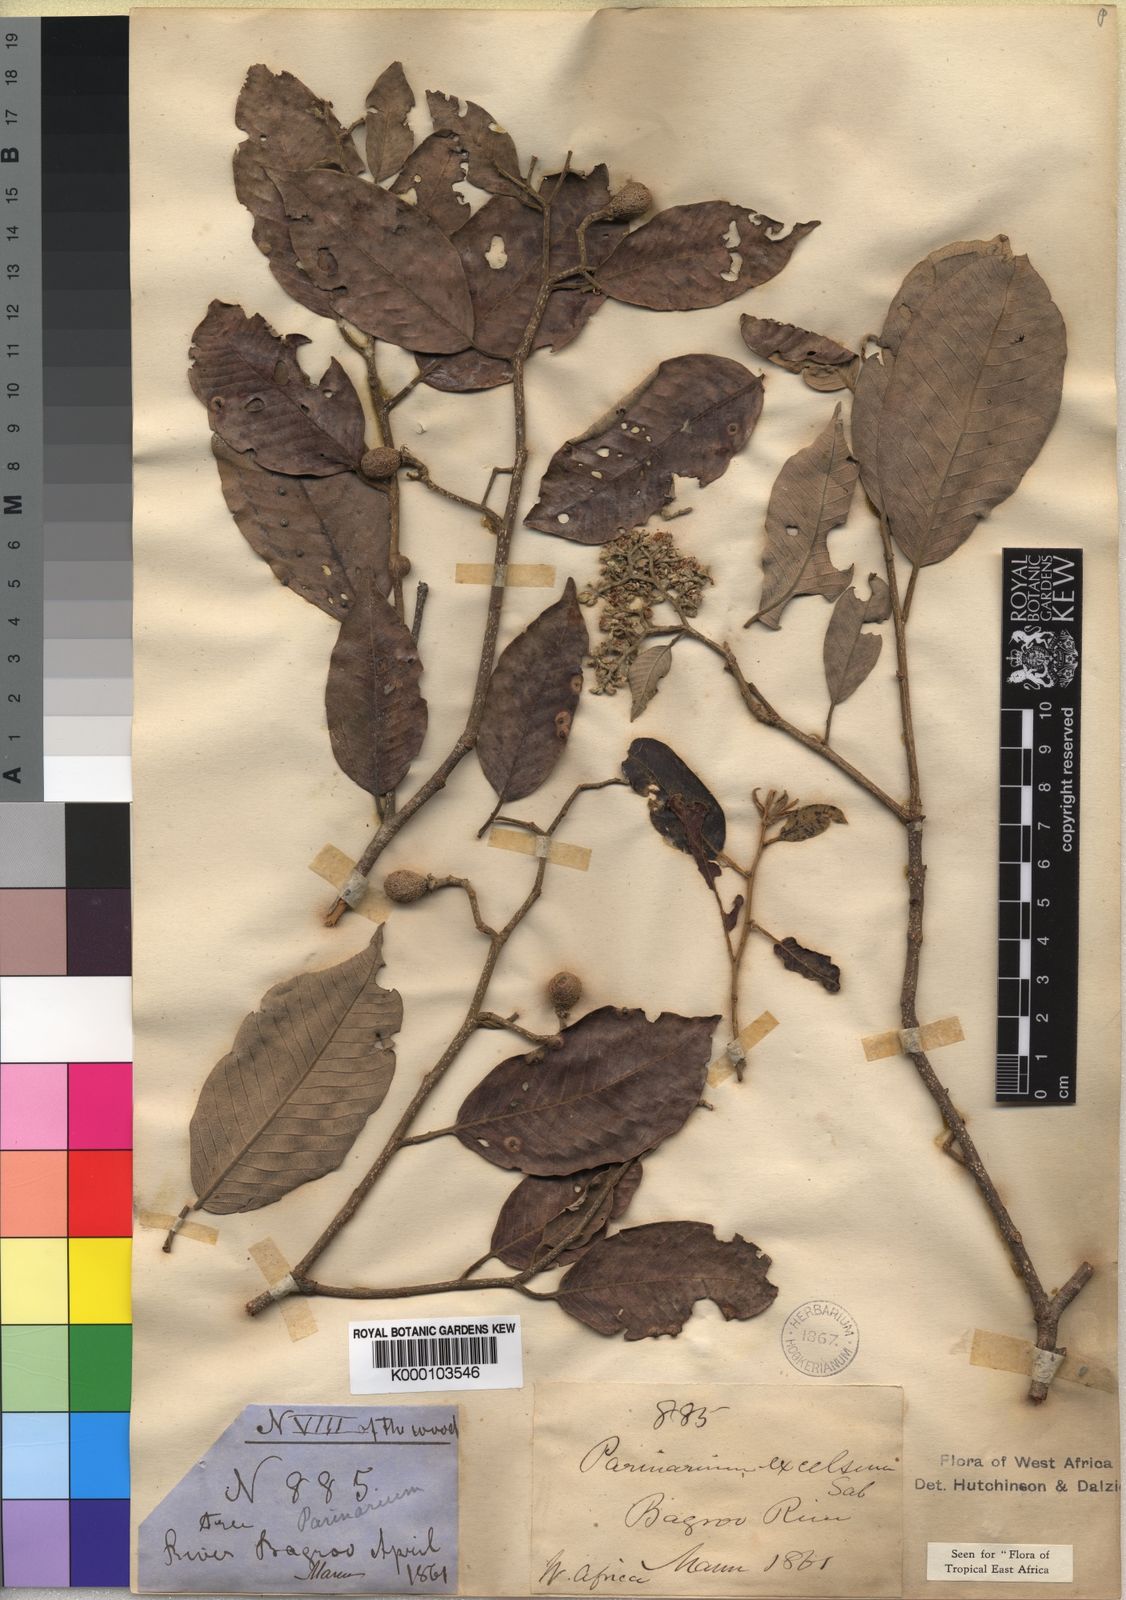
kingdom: Plantae
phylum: Tracheophyta
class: Magnoliopsida
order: Malpighiales
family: Chrysobalanaceae
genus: Parinari
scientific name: Parinari excelsa
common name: Guinea-plum
